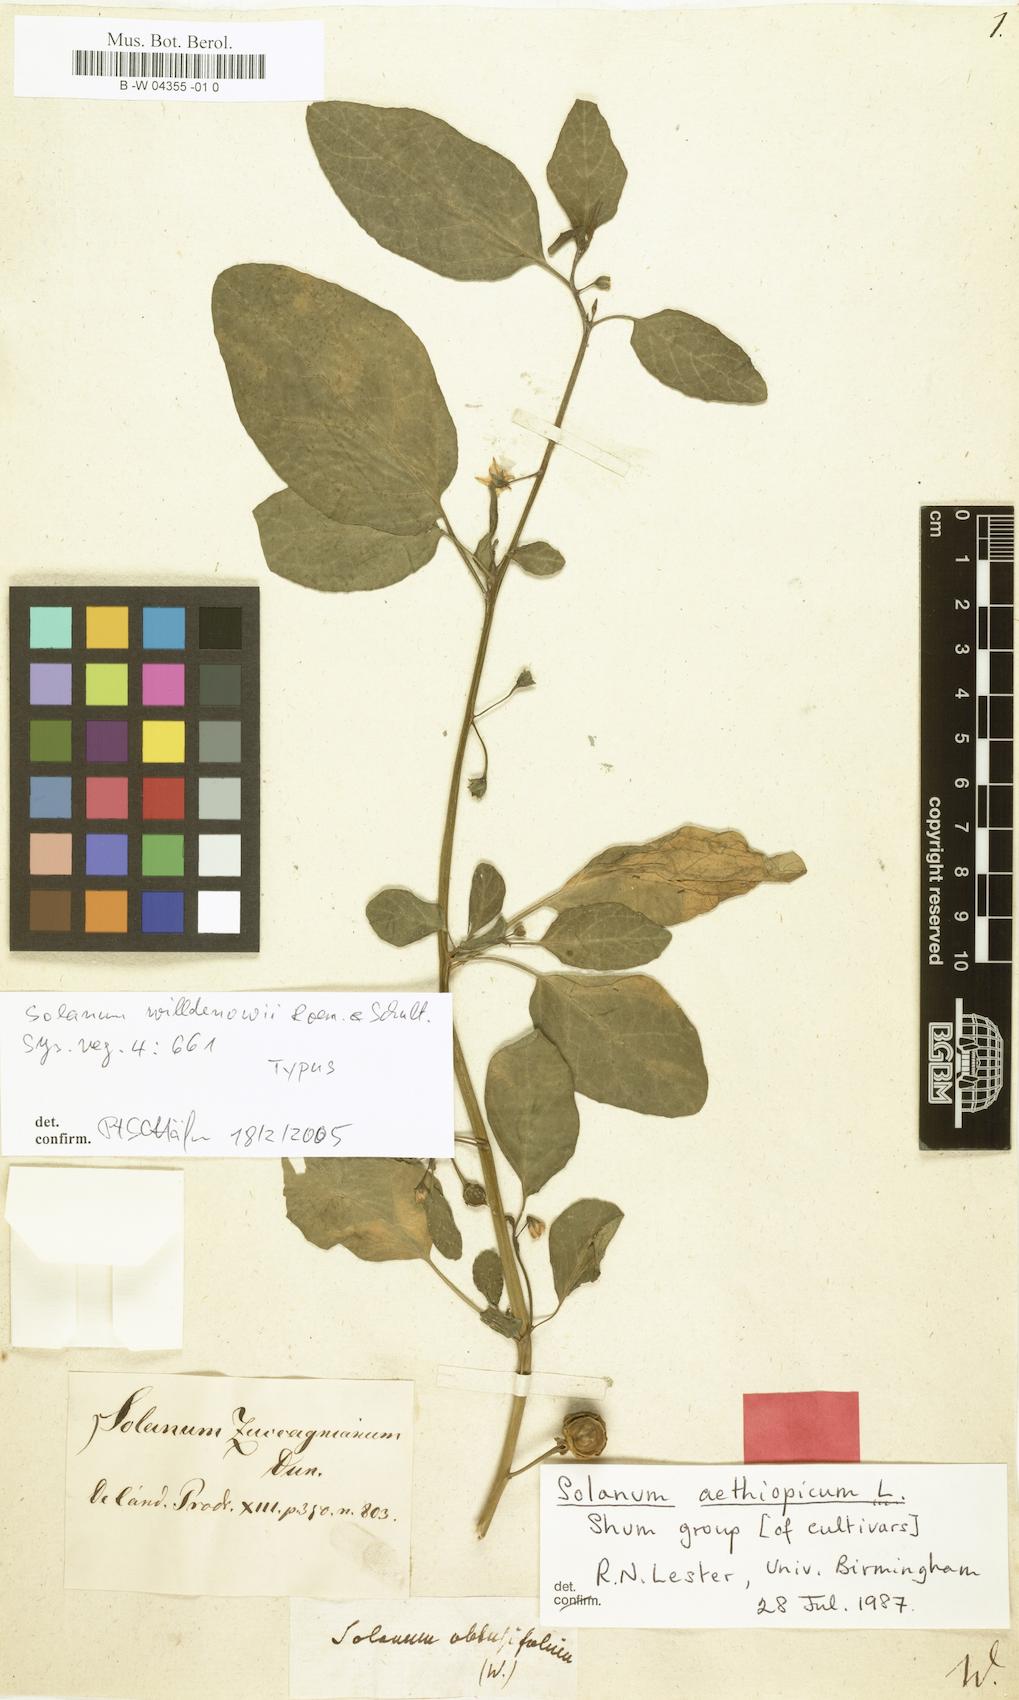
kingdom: Plantae
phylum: Tracheophyta
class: Magnoliopsida
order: Solanales
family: Solanaceae
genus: Solanum
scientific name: Solanum
